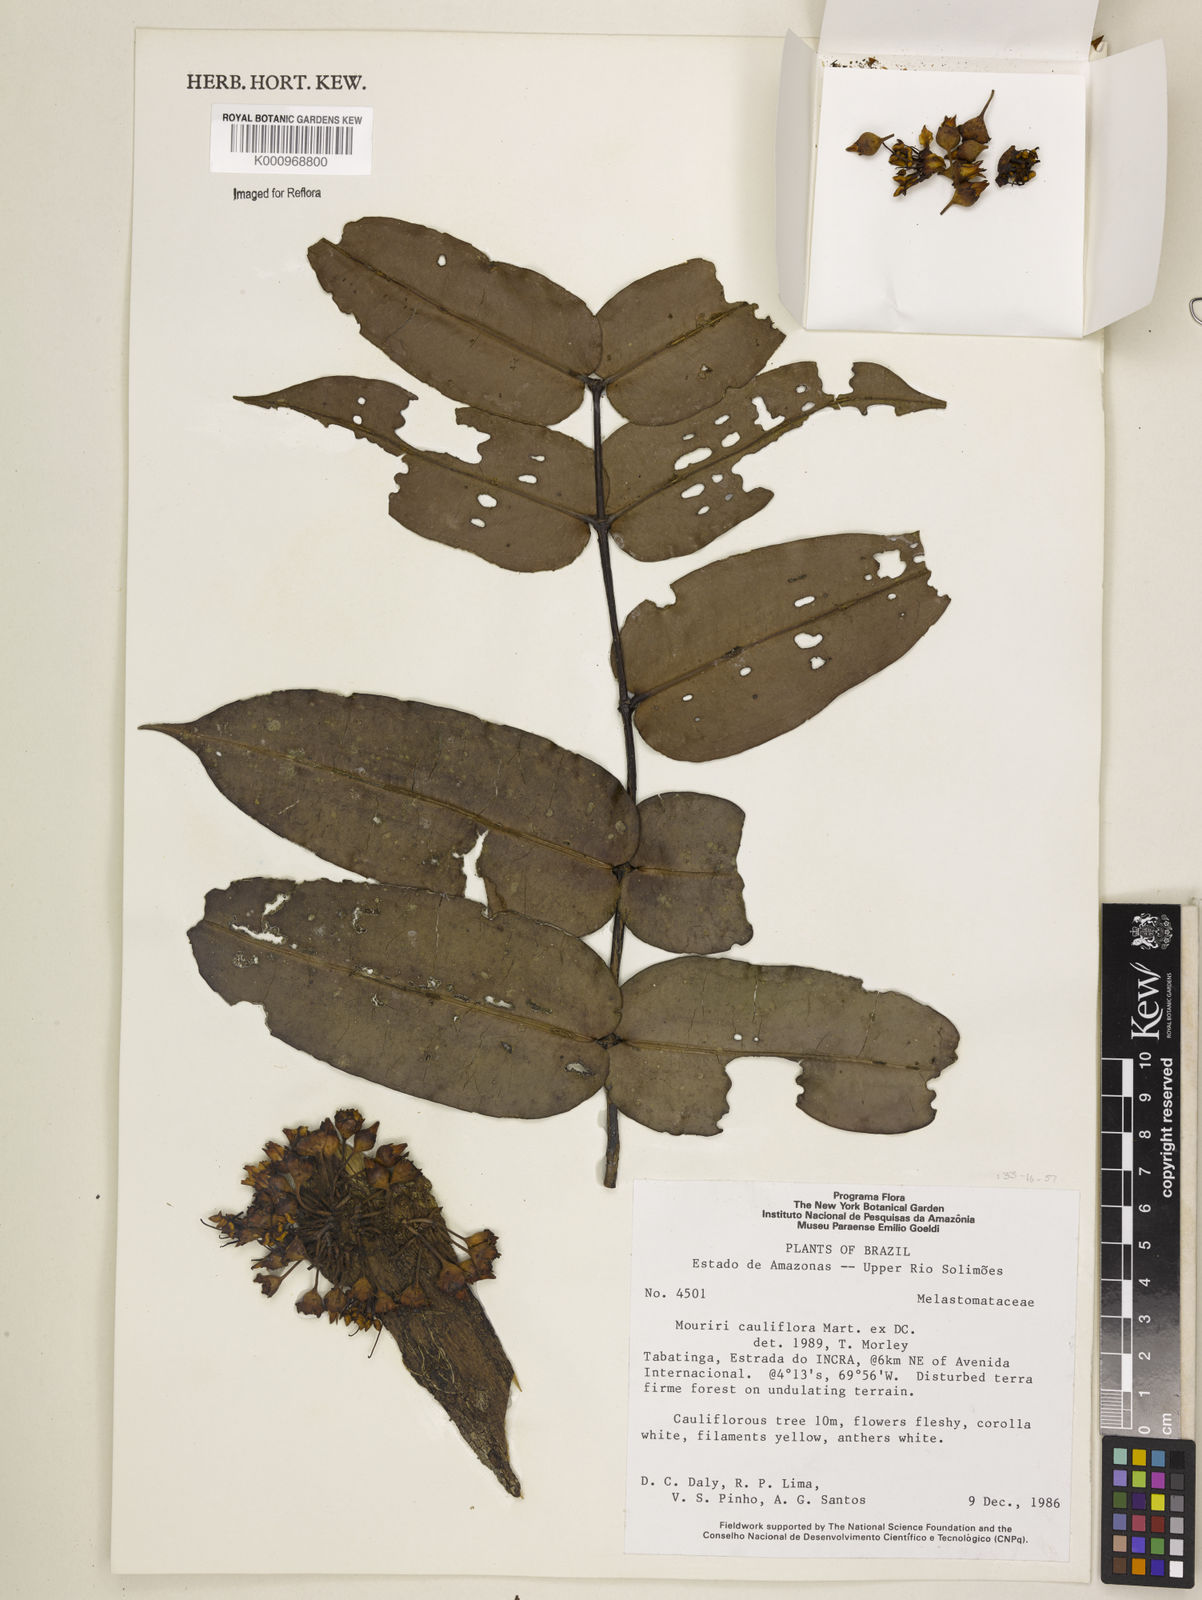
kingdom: Plantae
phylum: Tracheophyta
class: Magnoliopsida
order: Myrtales
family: Melastomataceae
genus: Mouriri
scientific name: Mouriri cauliflora
